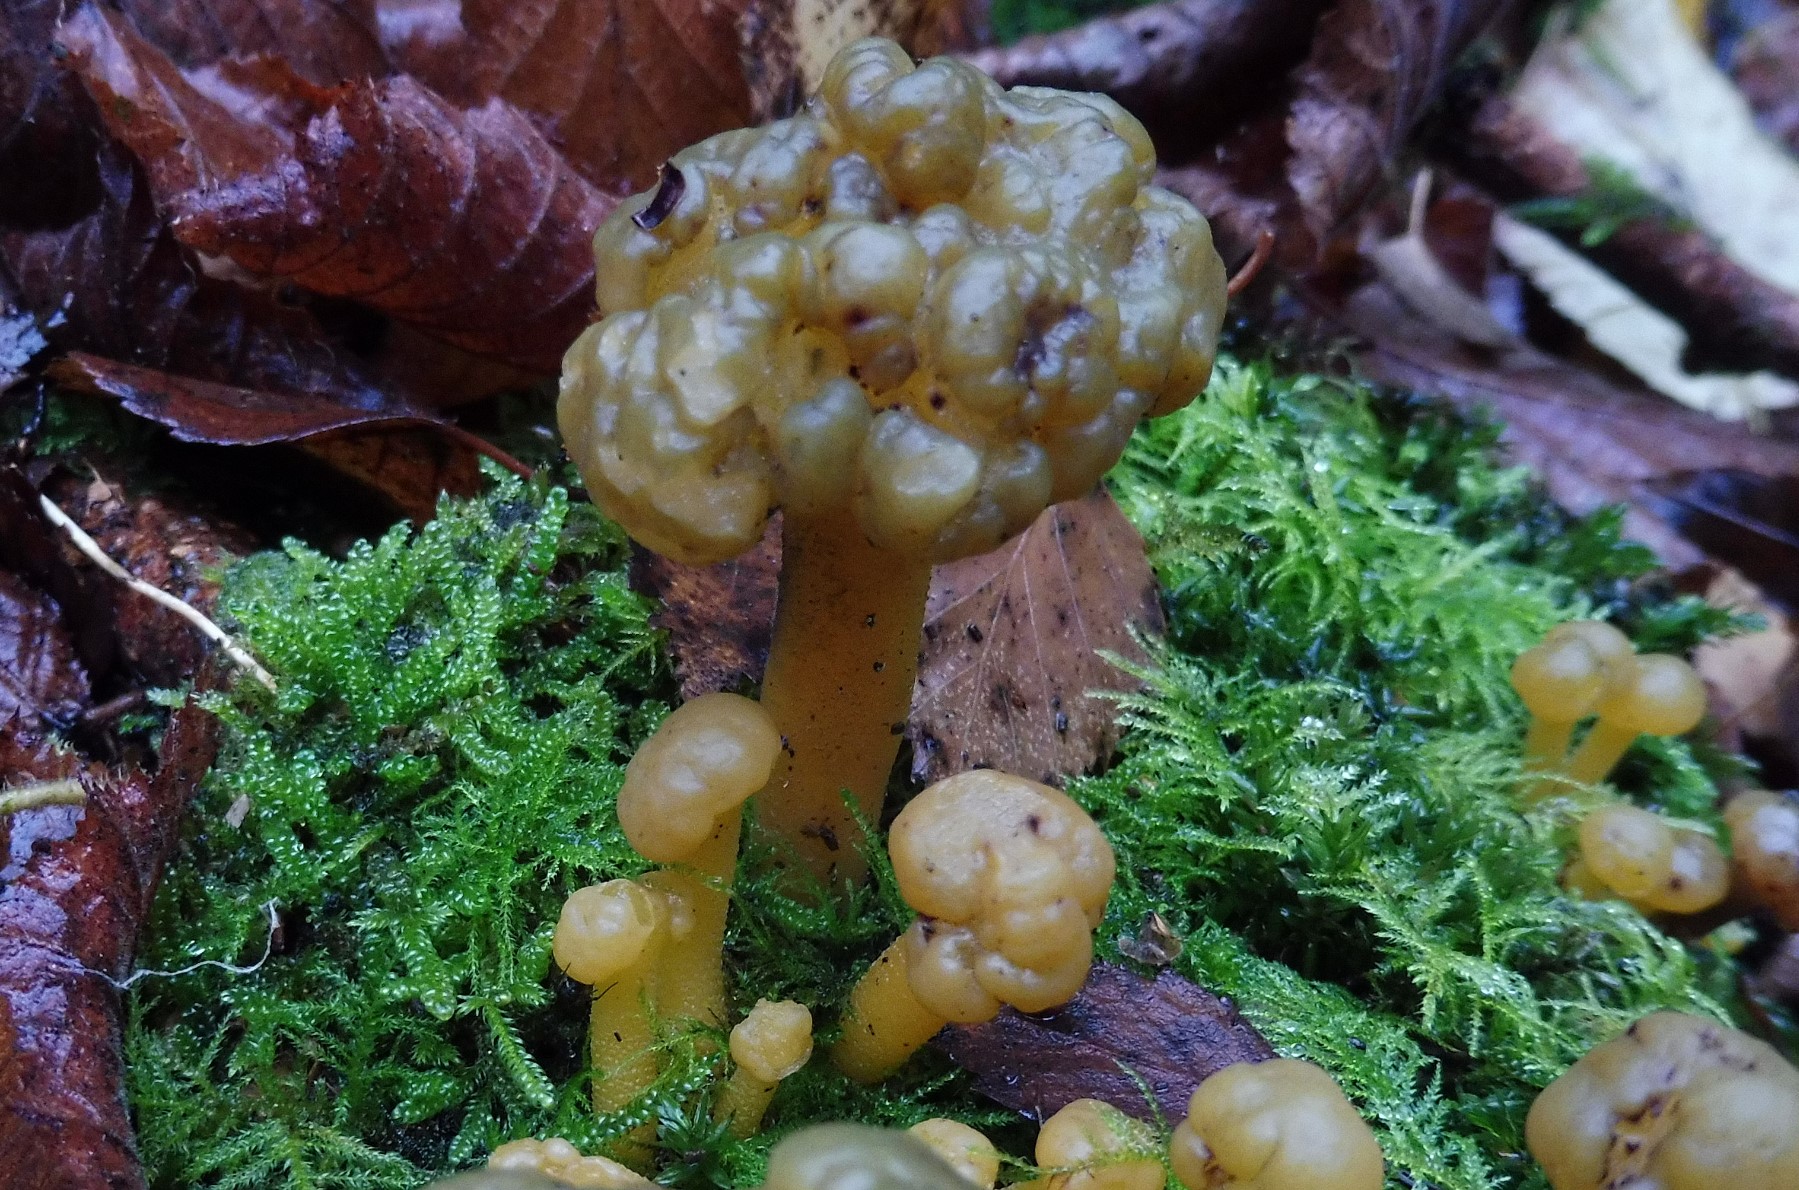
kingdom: Fungi
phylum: Ascomycota
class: Leotiomycetes
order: Leotiales
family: Leotiaceae
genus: Leotia
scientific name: Leotia lubrica
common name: ravsvamp
